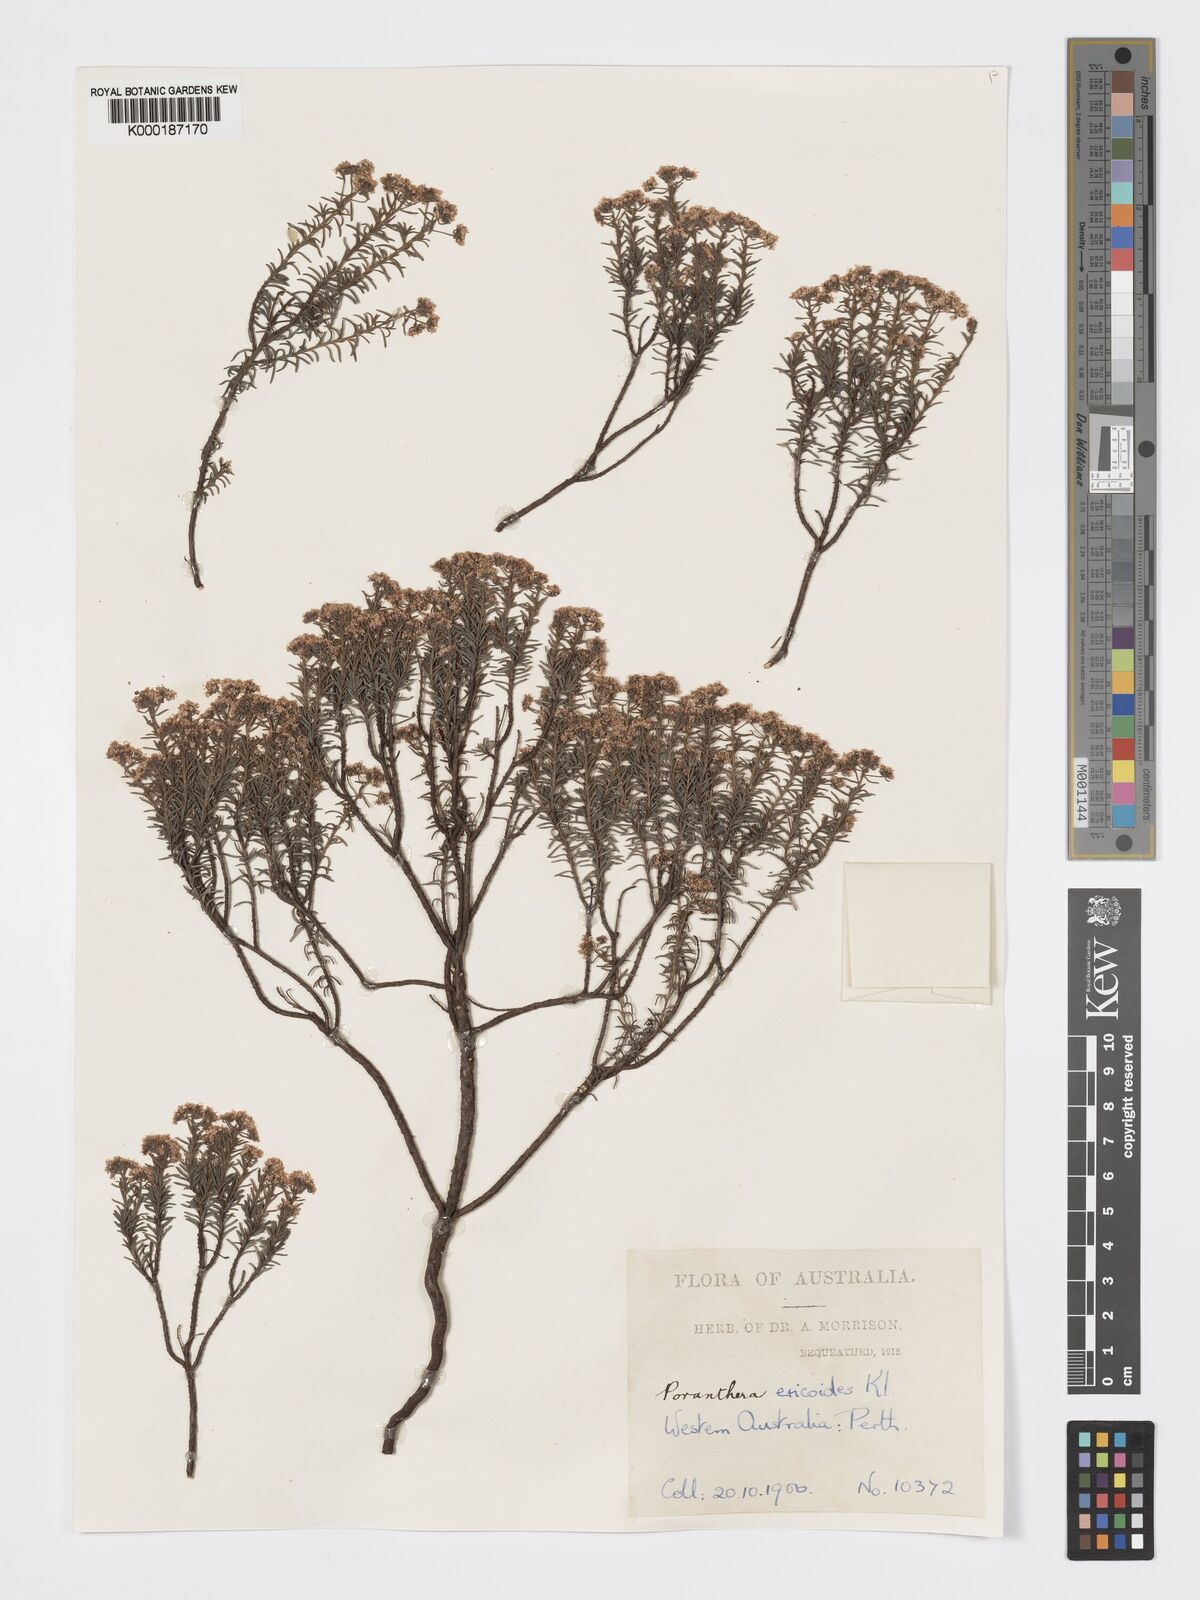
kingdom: Plantae
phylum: Tracheophyta
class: Magnoliopsida
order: Malpighiales
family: Phyllanthaceae
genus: Poranthera
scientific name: Poranthera ericoides
